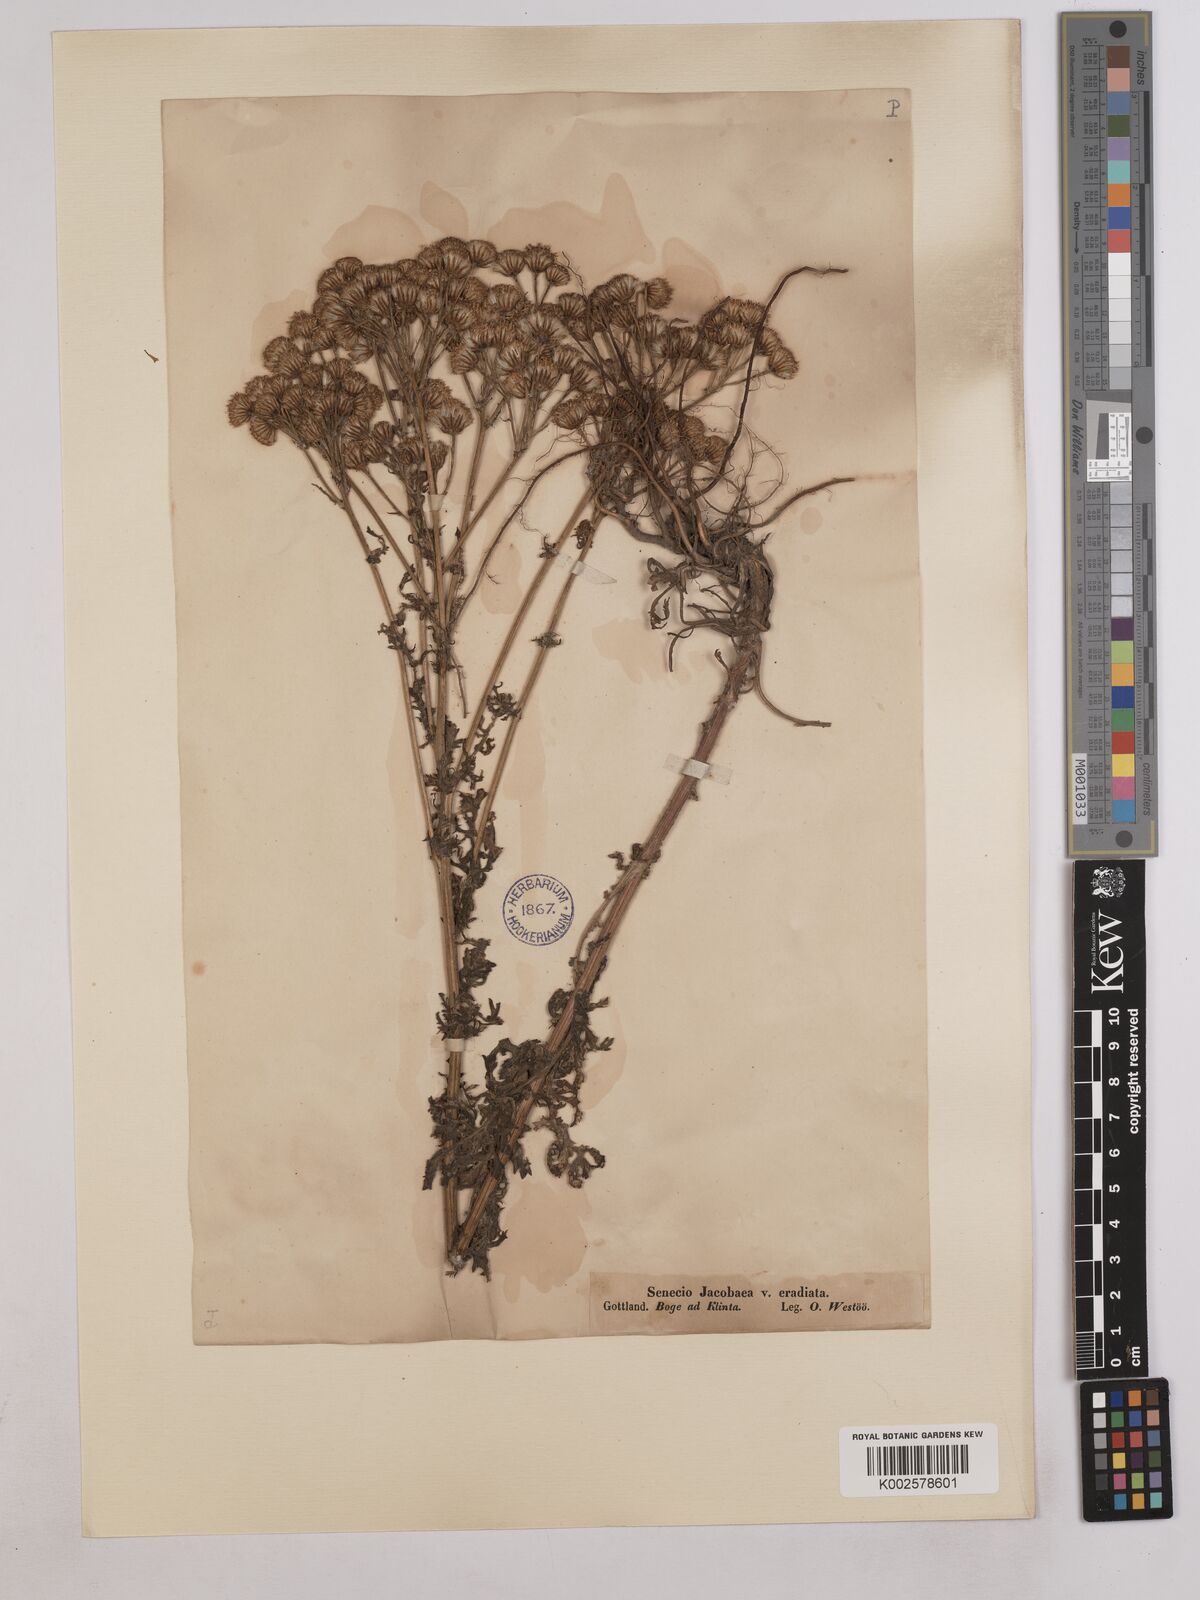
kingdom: Plantae
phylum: Tracheophyta
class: Magnoliopsida
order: Asterales
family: Asteraceae
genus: Jacobaea
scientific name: Jacobaea vulgaris
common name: Stinking willie
